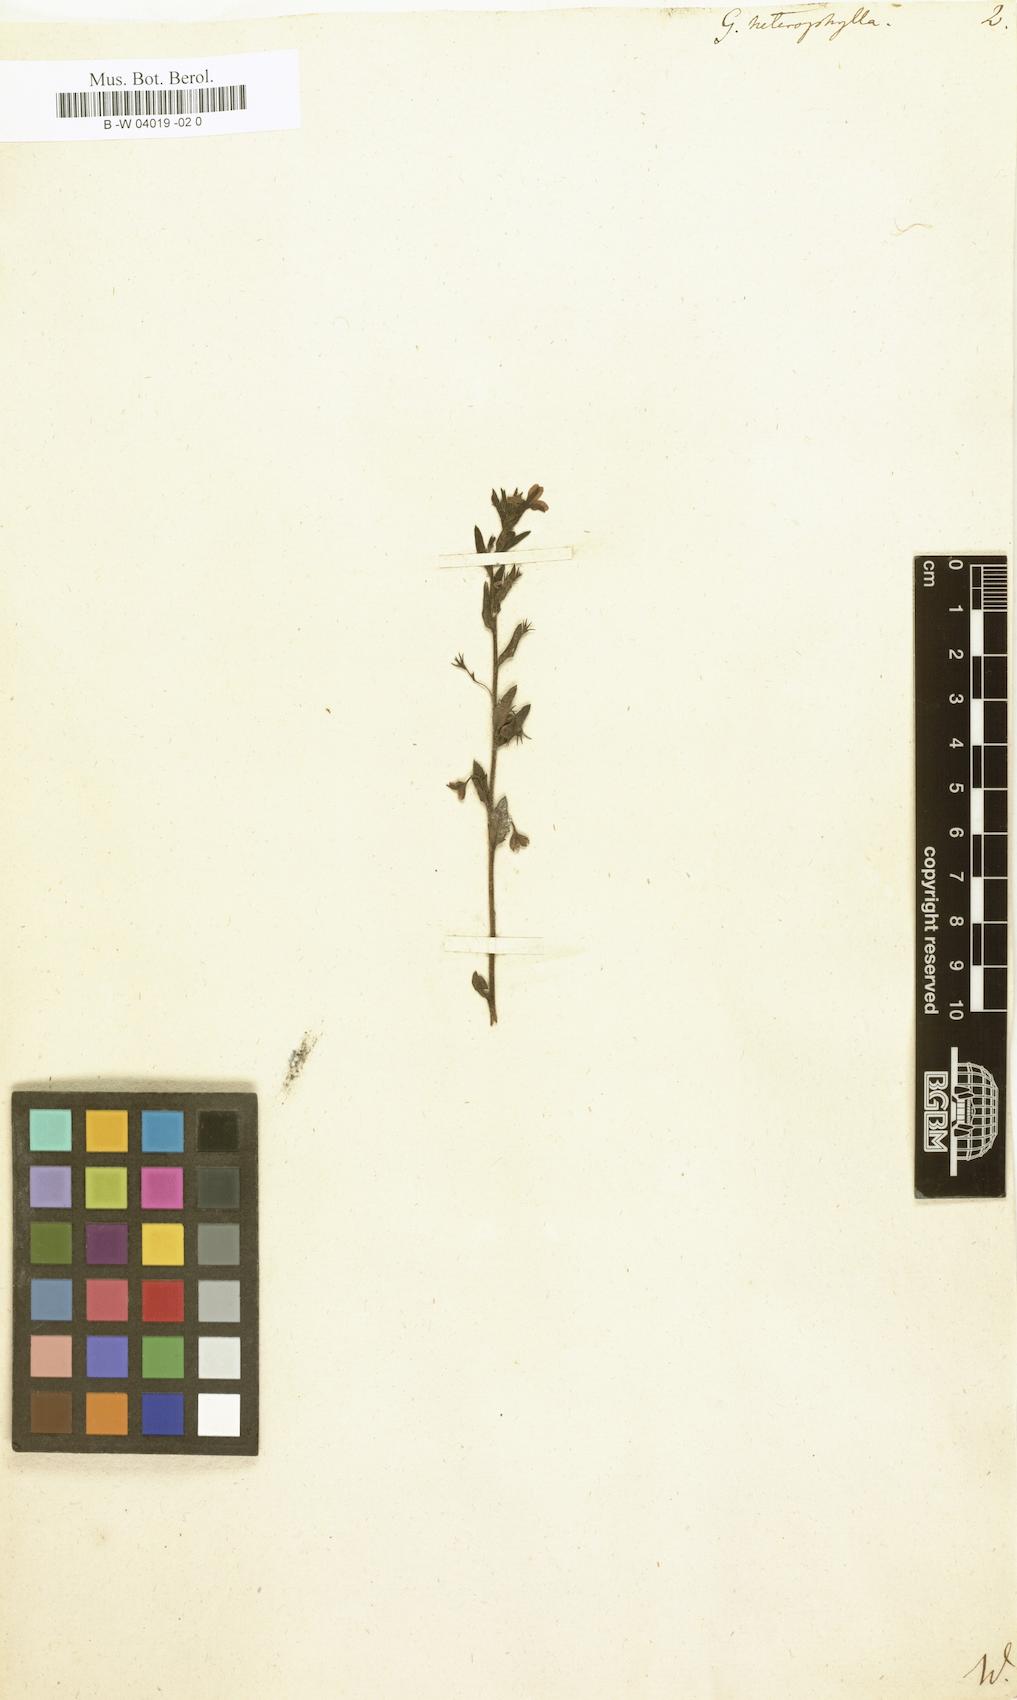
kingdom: Plantae
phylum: Tracheophyta
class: Magnoliopsida
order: Asterales
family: Goodeniaceae
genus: Goodenia
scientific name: Goodenia heterophylla
